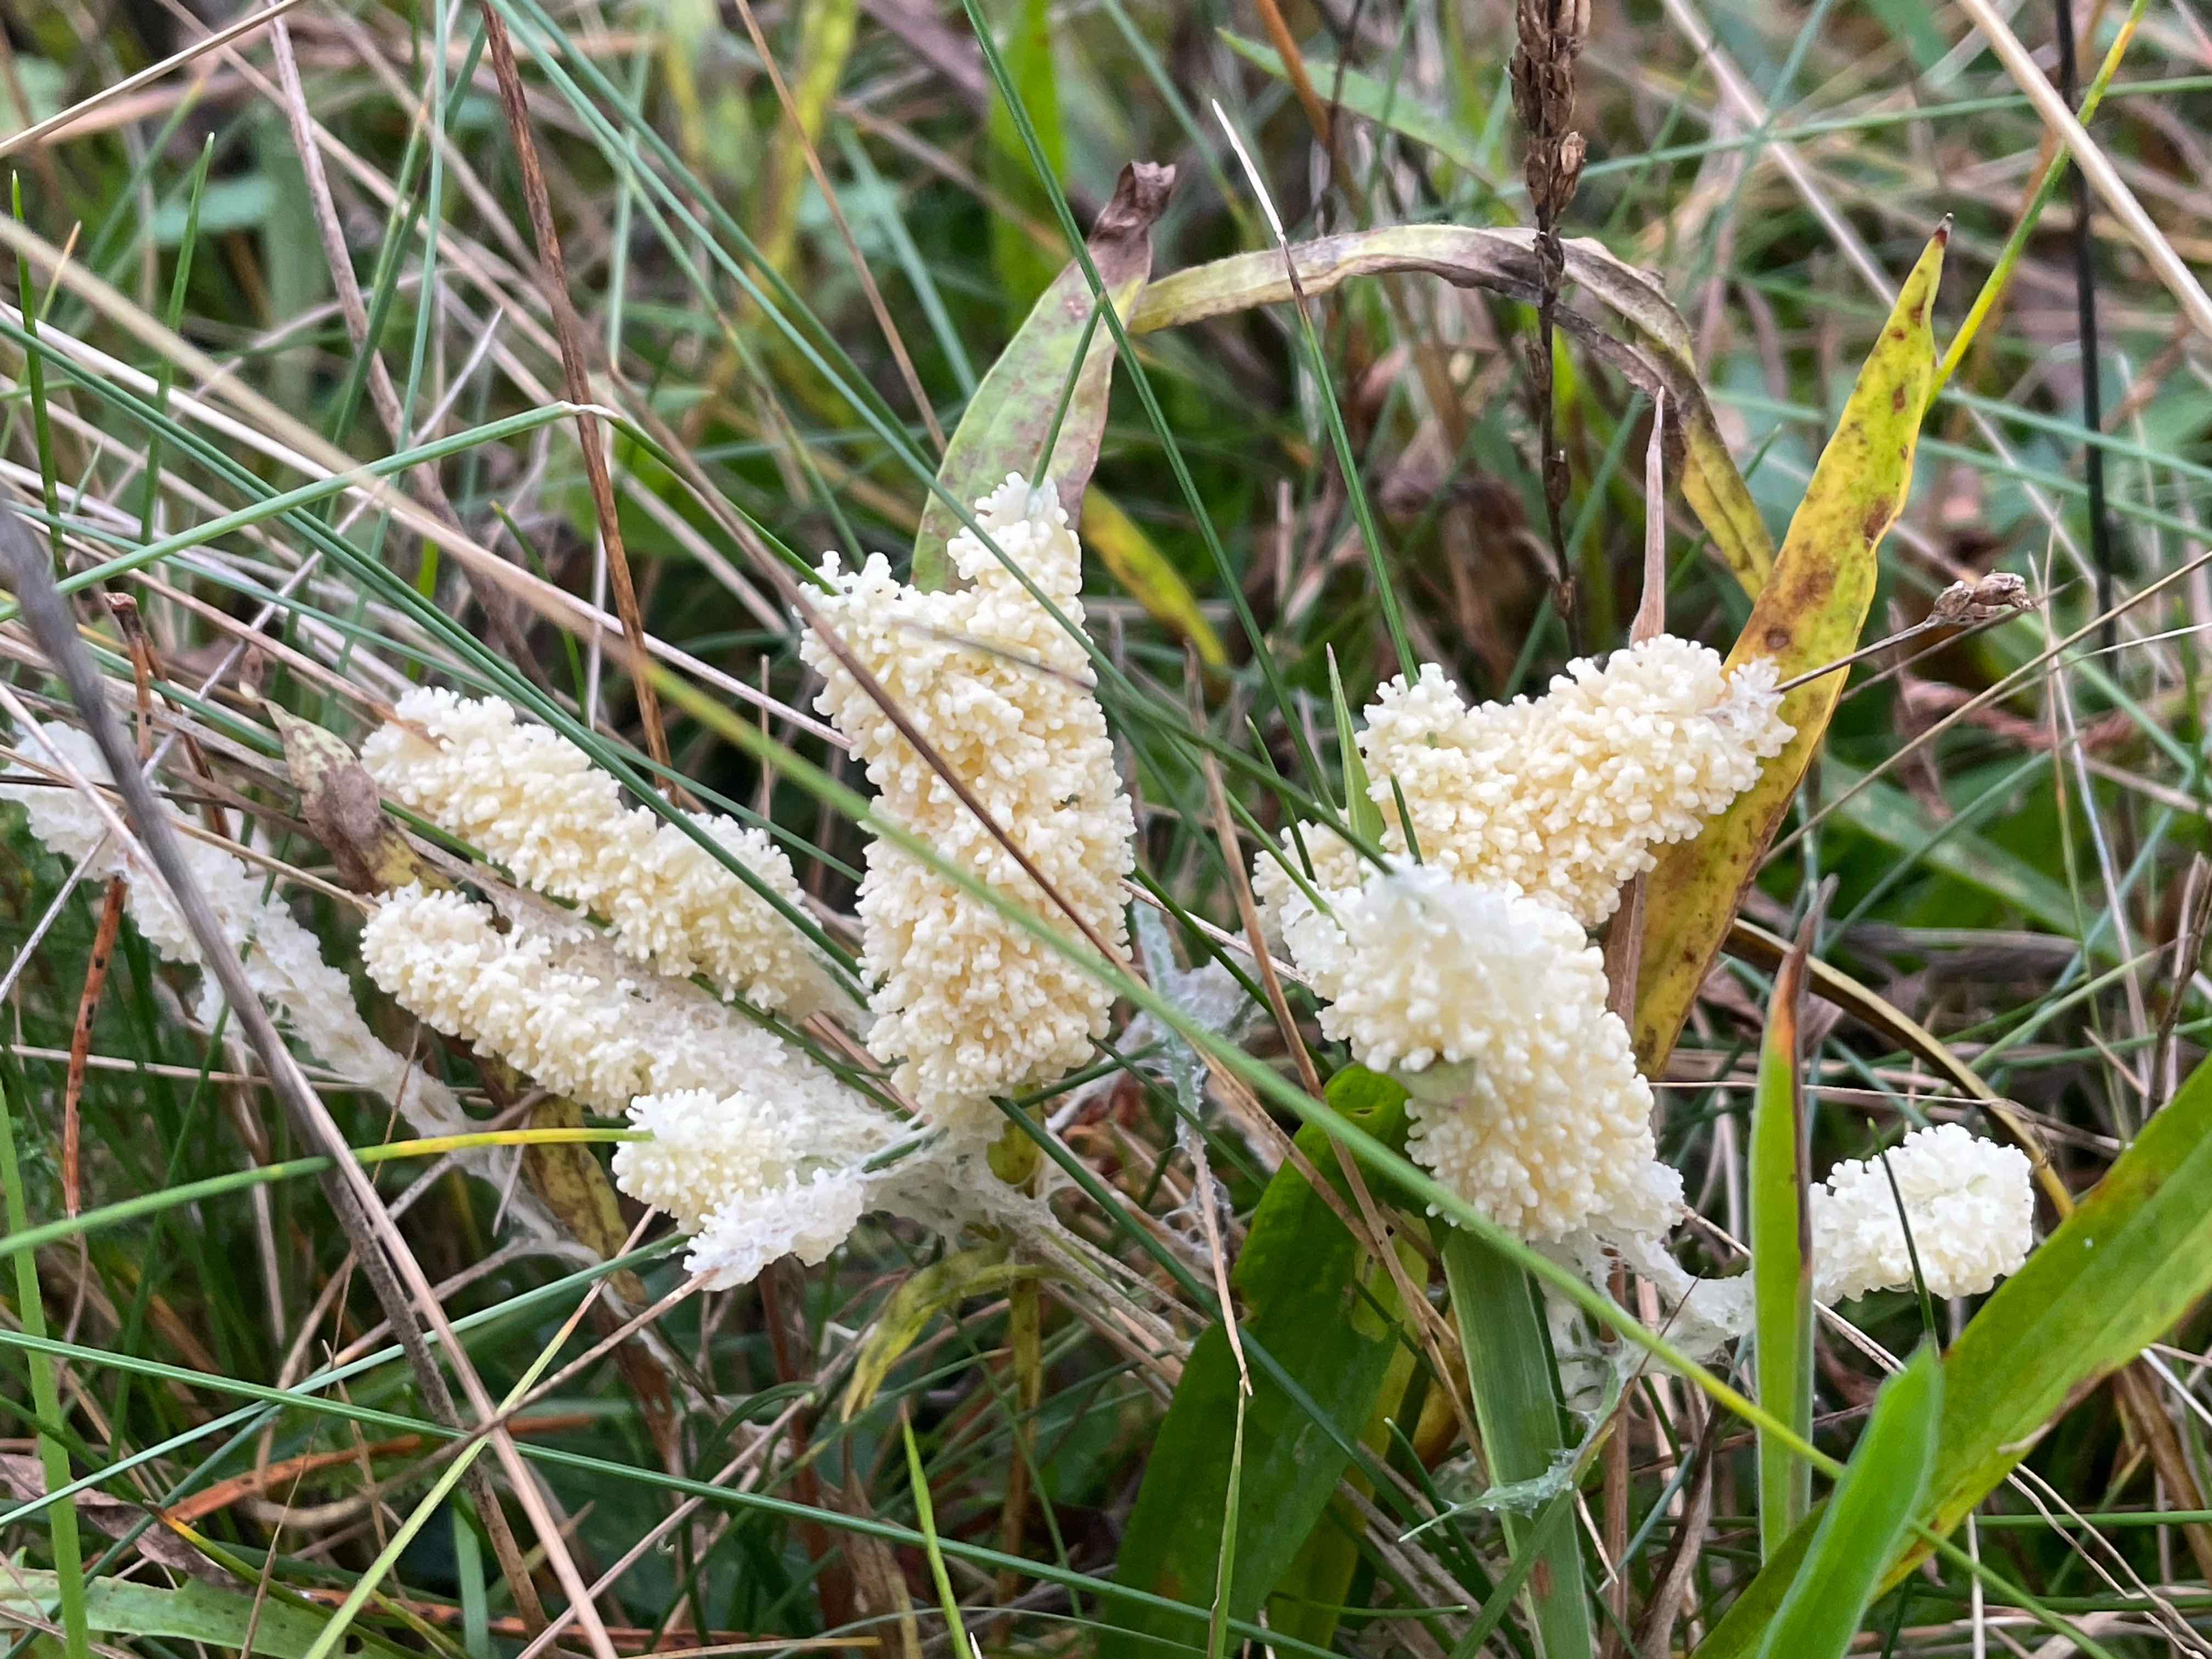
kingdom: Protozoa
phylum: Mycetozoa
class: Myxomycetes
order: Physarales
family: Physaraceae
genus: Didymium
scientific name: Didymium
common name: urteskum
